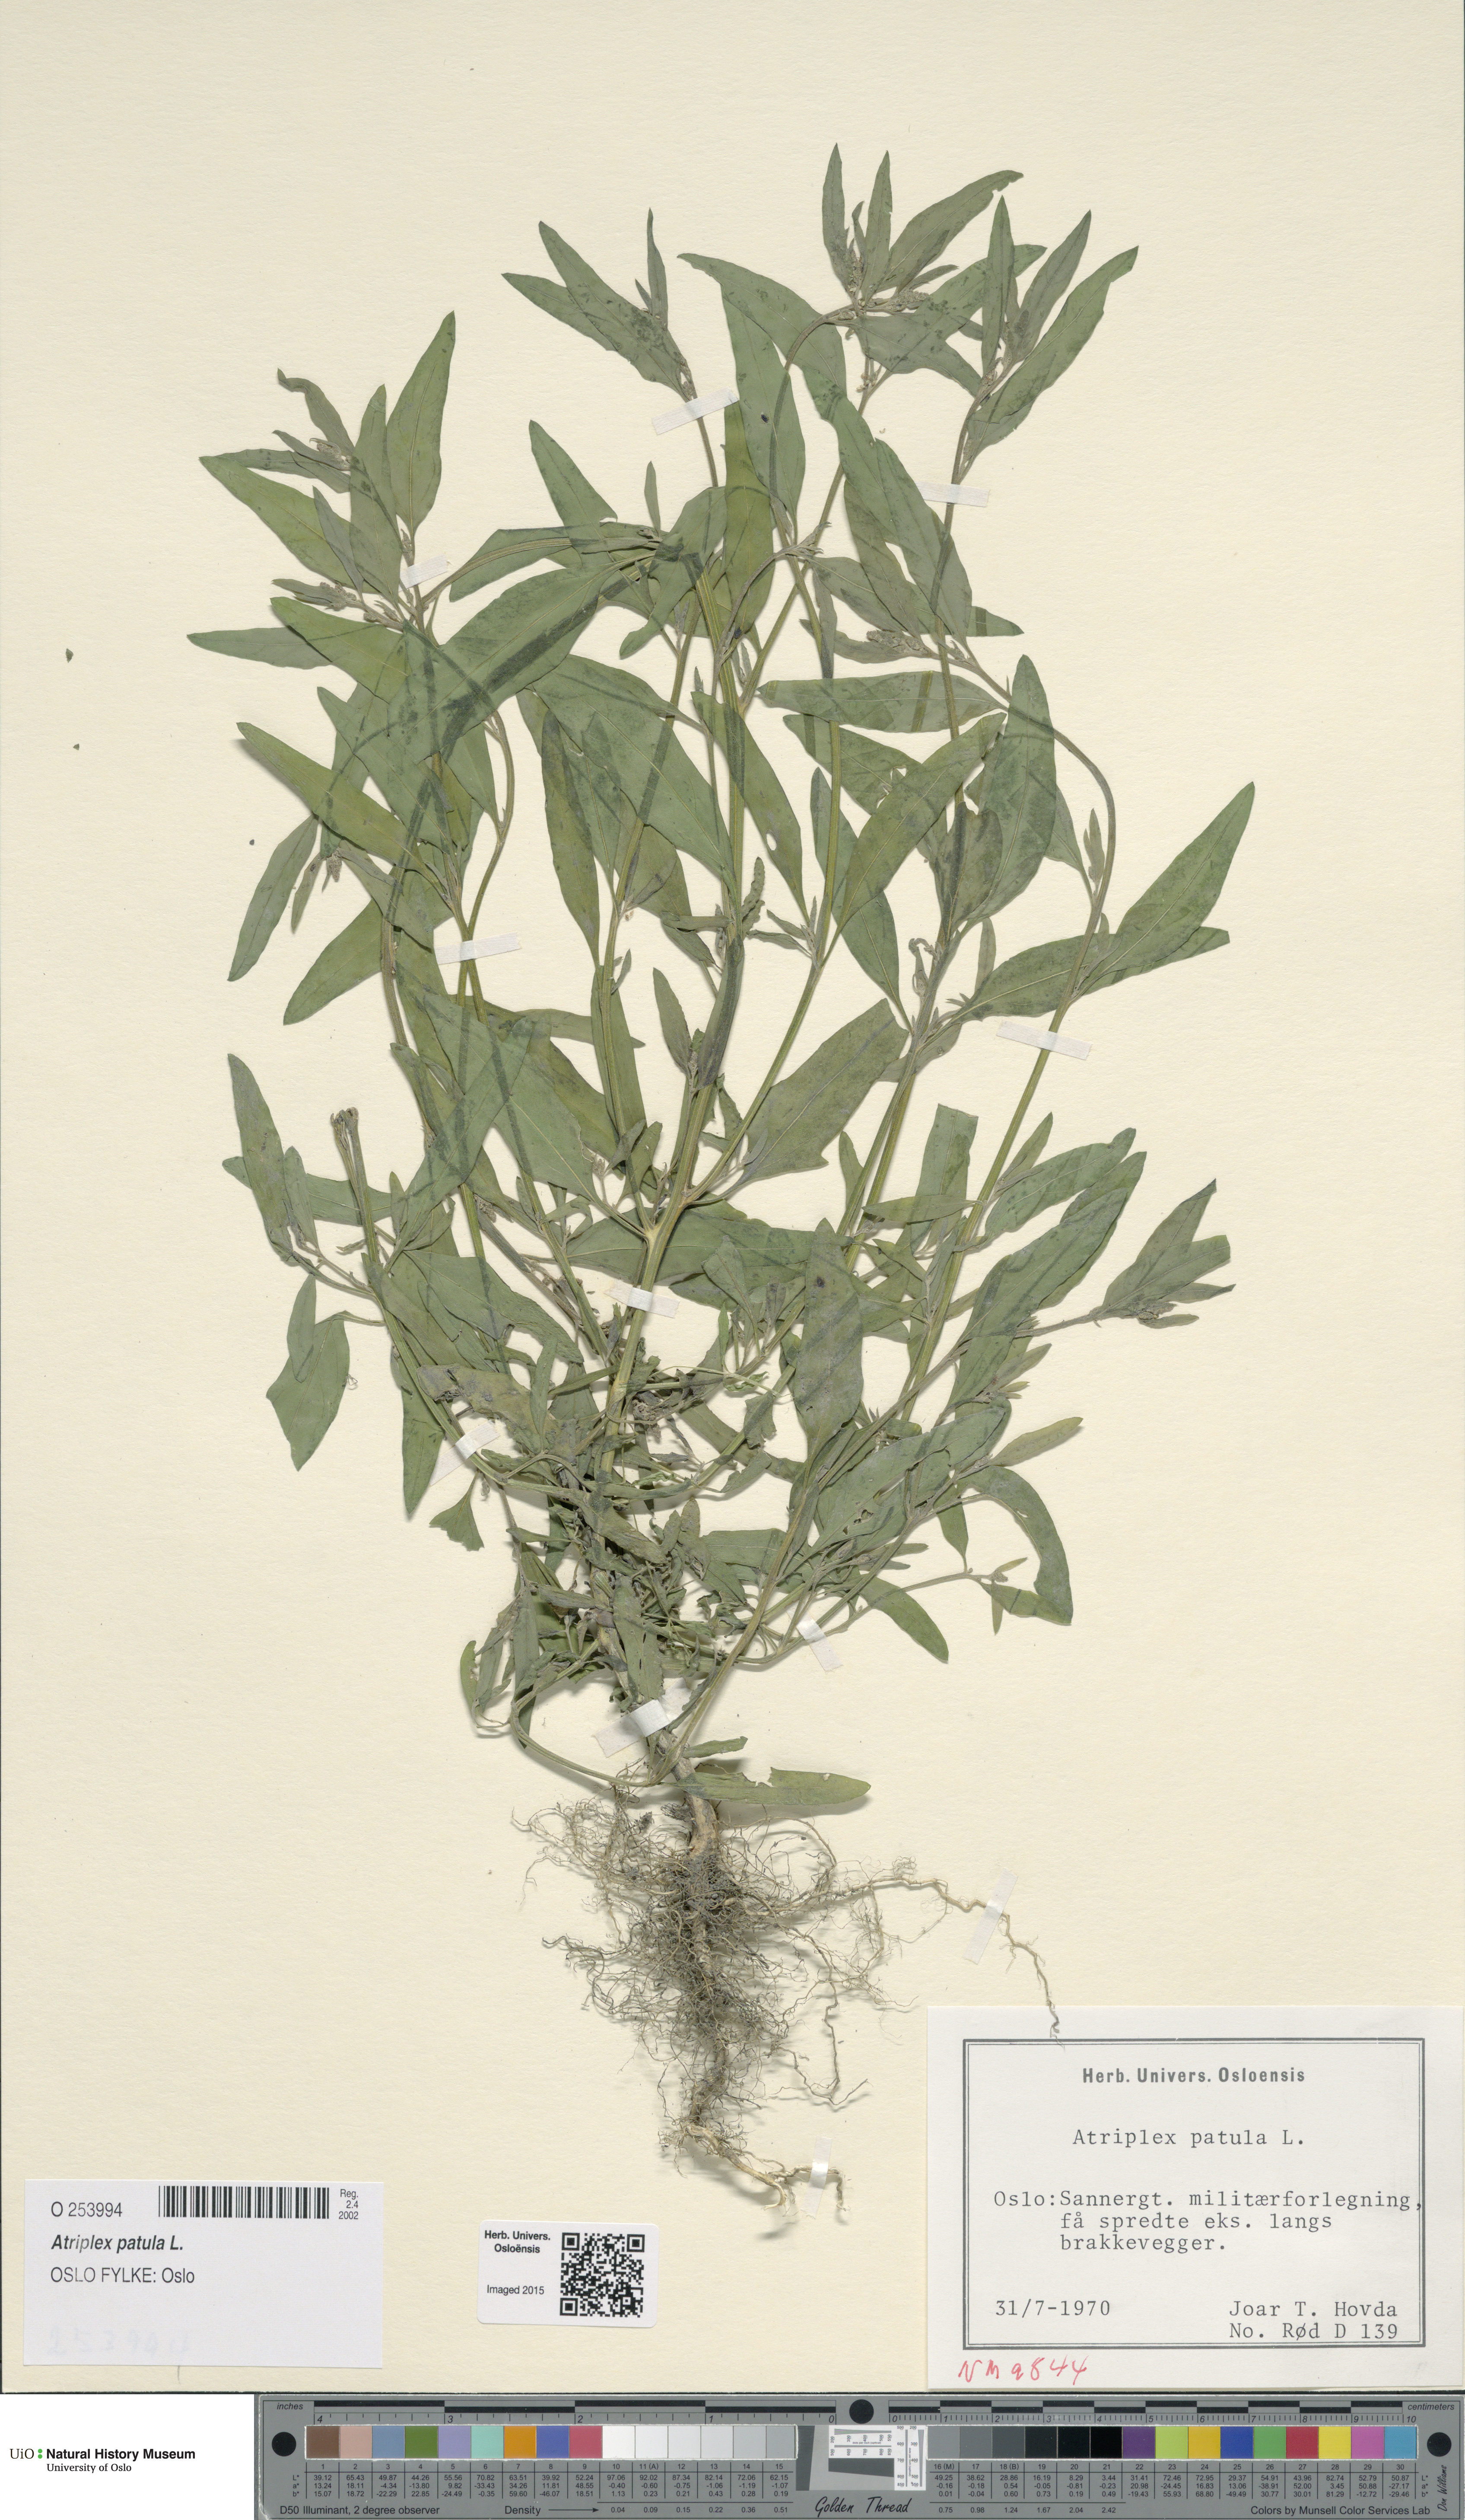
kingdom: Plantae
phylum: Tracheophyta
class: Magnoliopsida
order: Caryophyllales
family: Amaranthaceae
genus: Atriplex
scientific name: Atriplex patula
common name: Common orache
